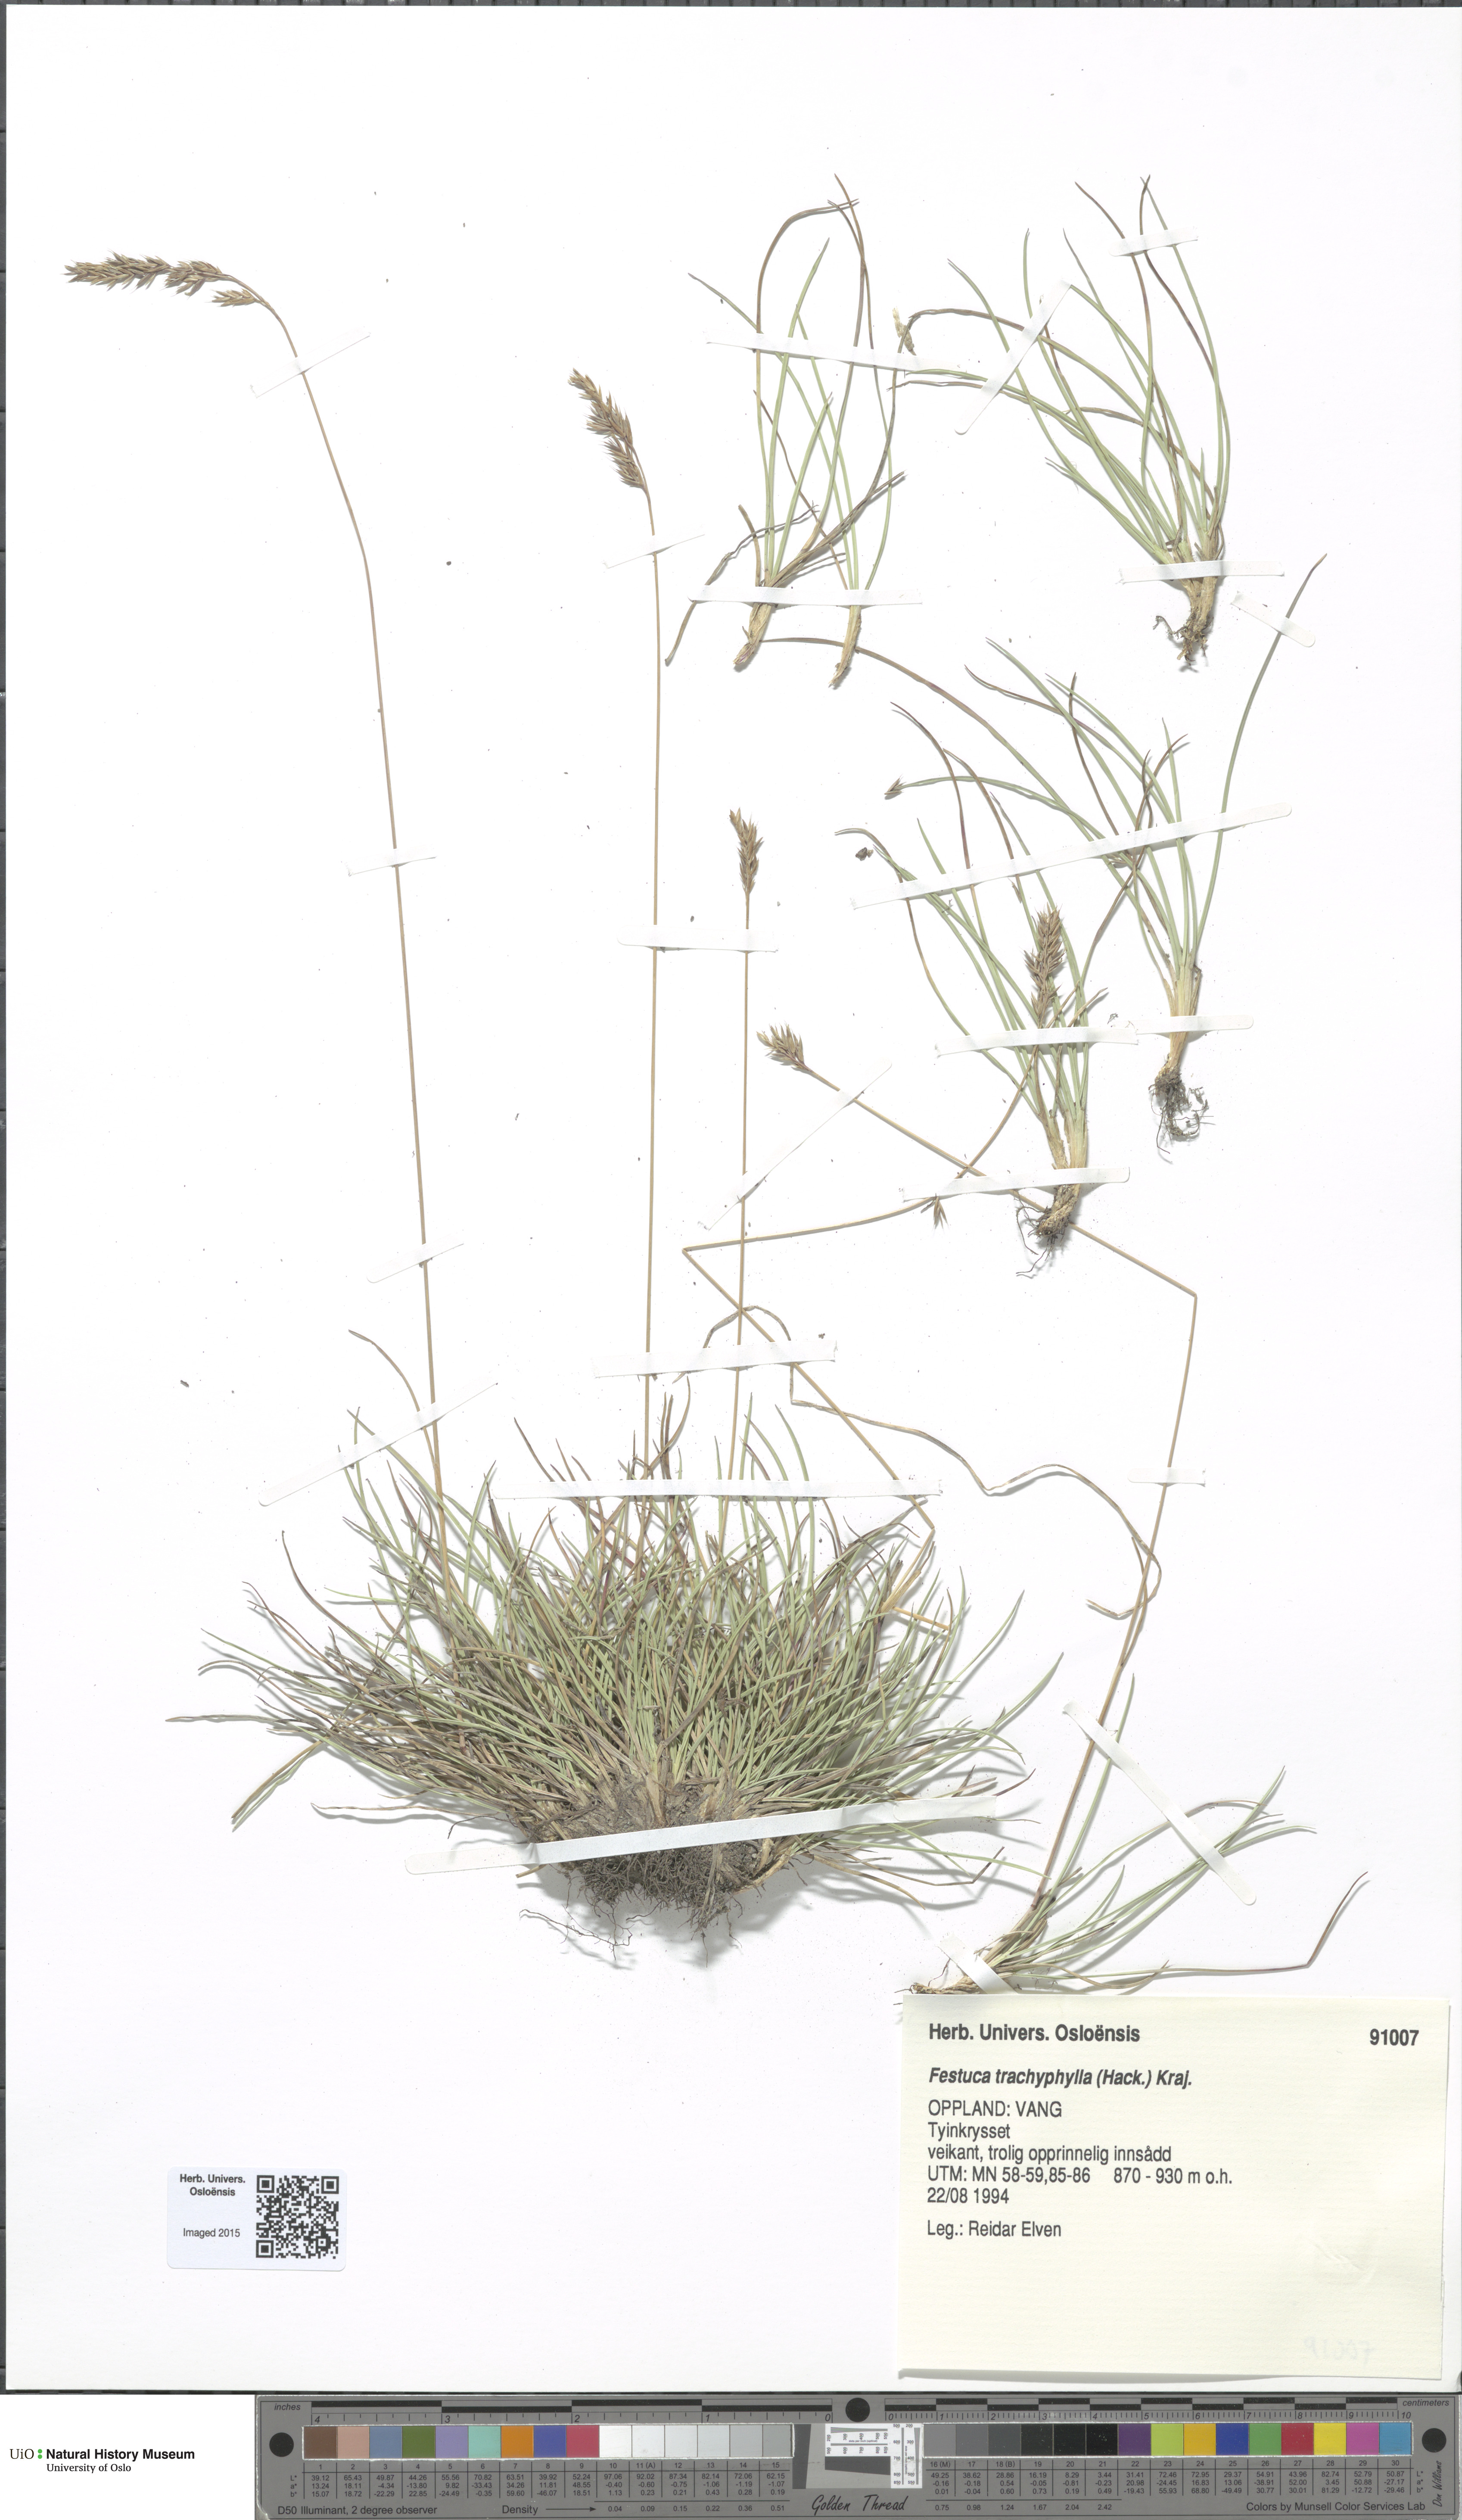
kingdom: Plantae
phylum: Tracheophyta
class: Liliopsida
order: Poales
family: Poaceae
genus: Festuca
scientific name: Festuca trachyphylla
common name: Hard fescue
